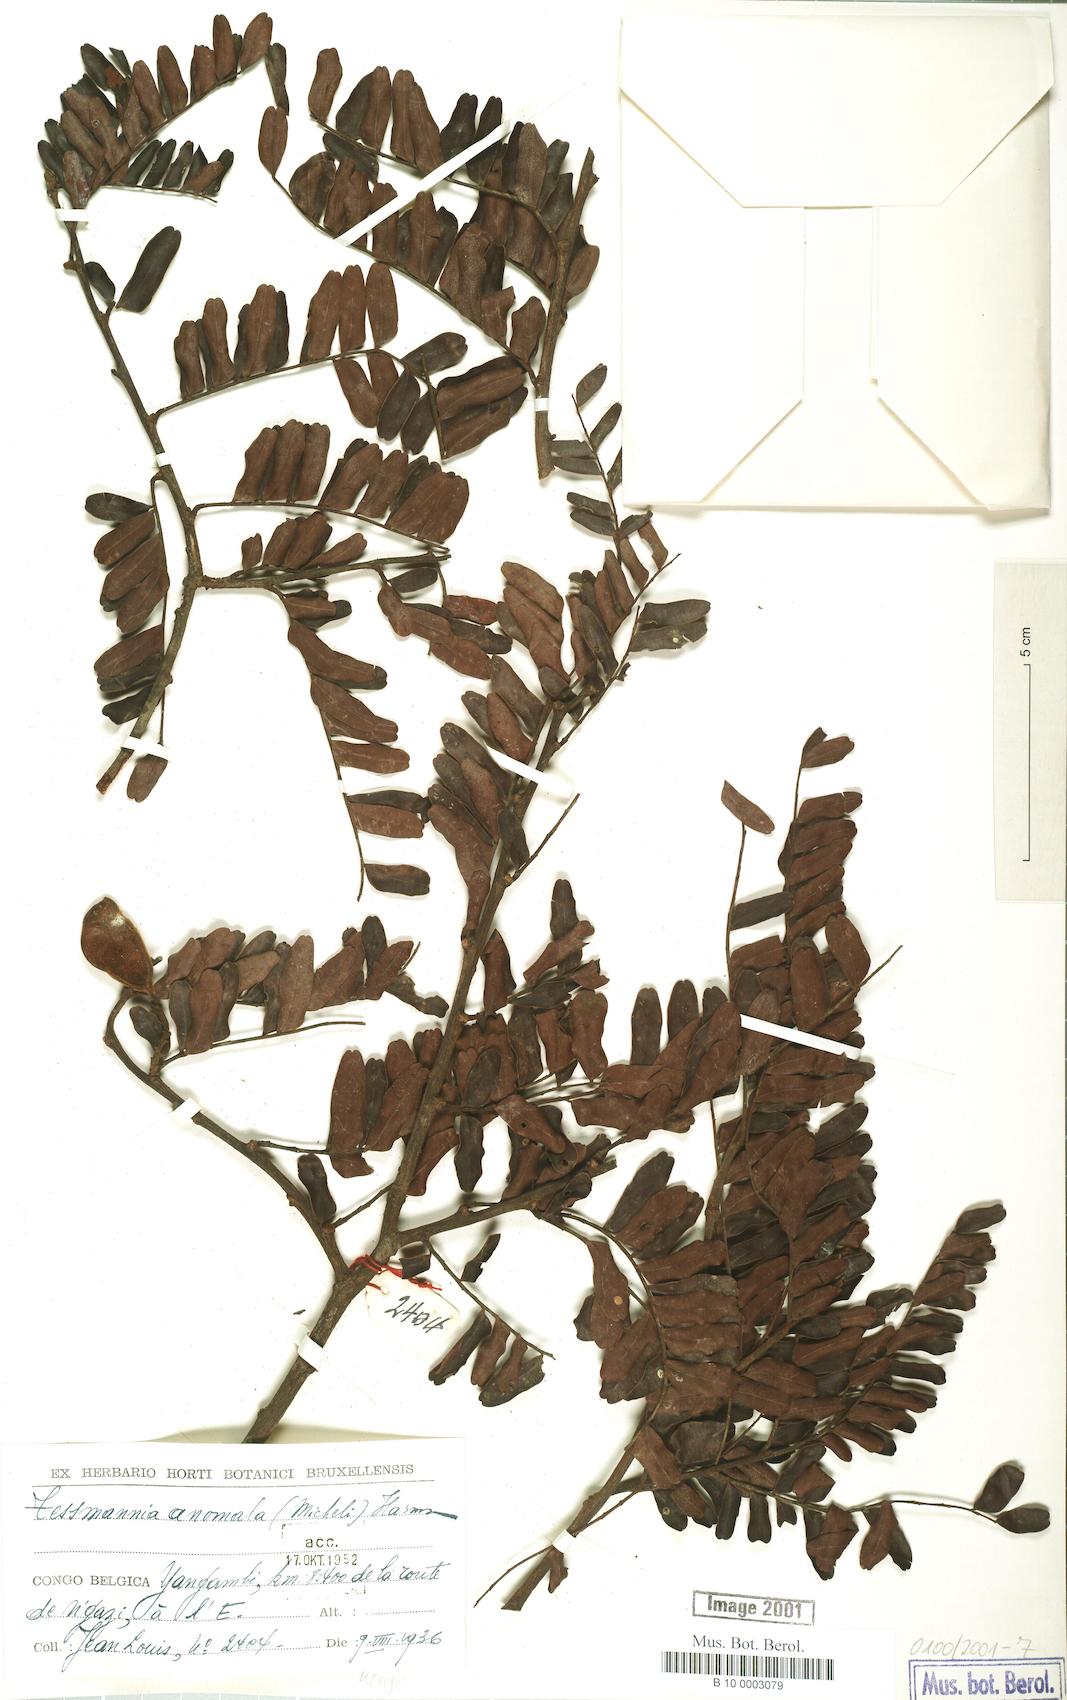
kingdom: Plantae
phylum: Tracheophyta
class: Magnoliopsida
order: Fabales
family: Fabaceae
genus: Tessmannia
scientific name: Tessmannia anomala
